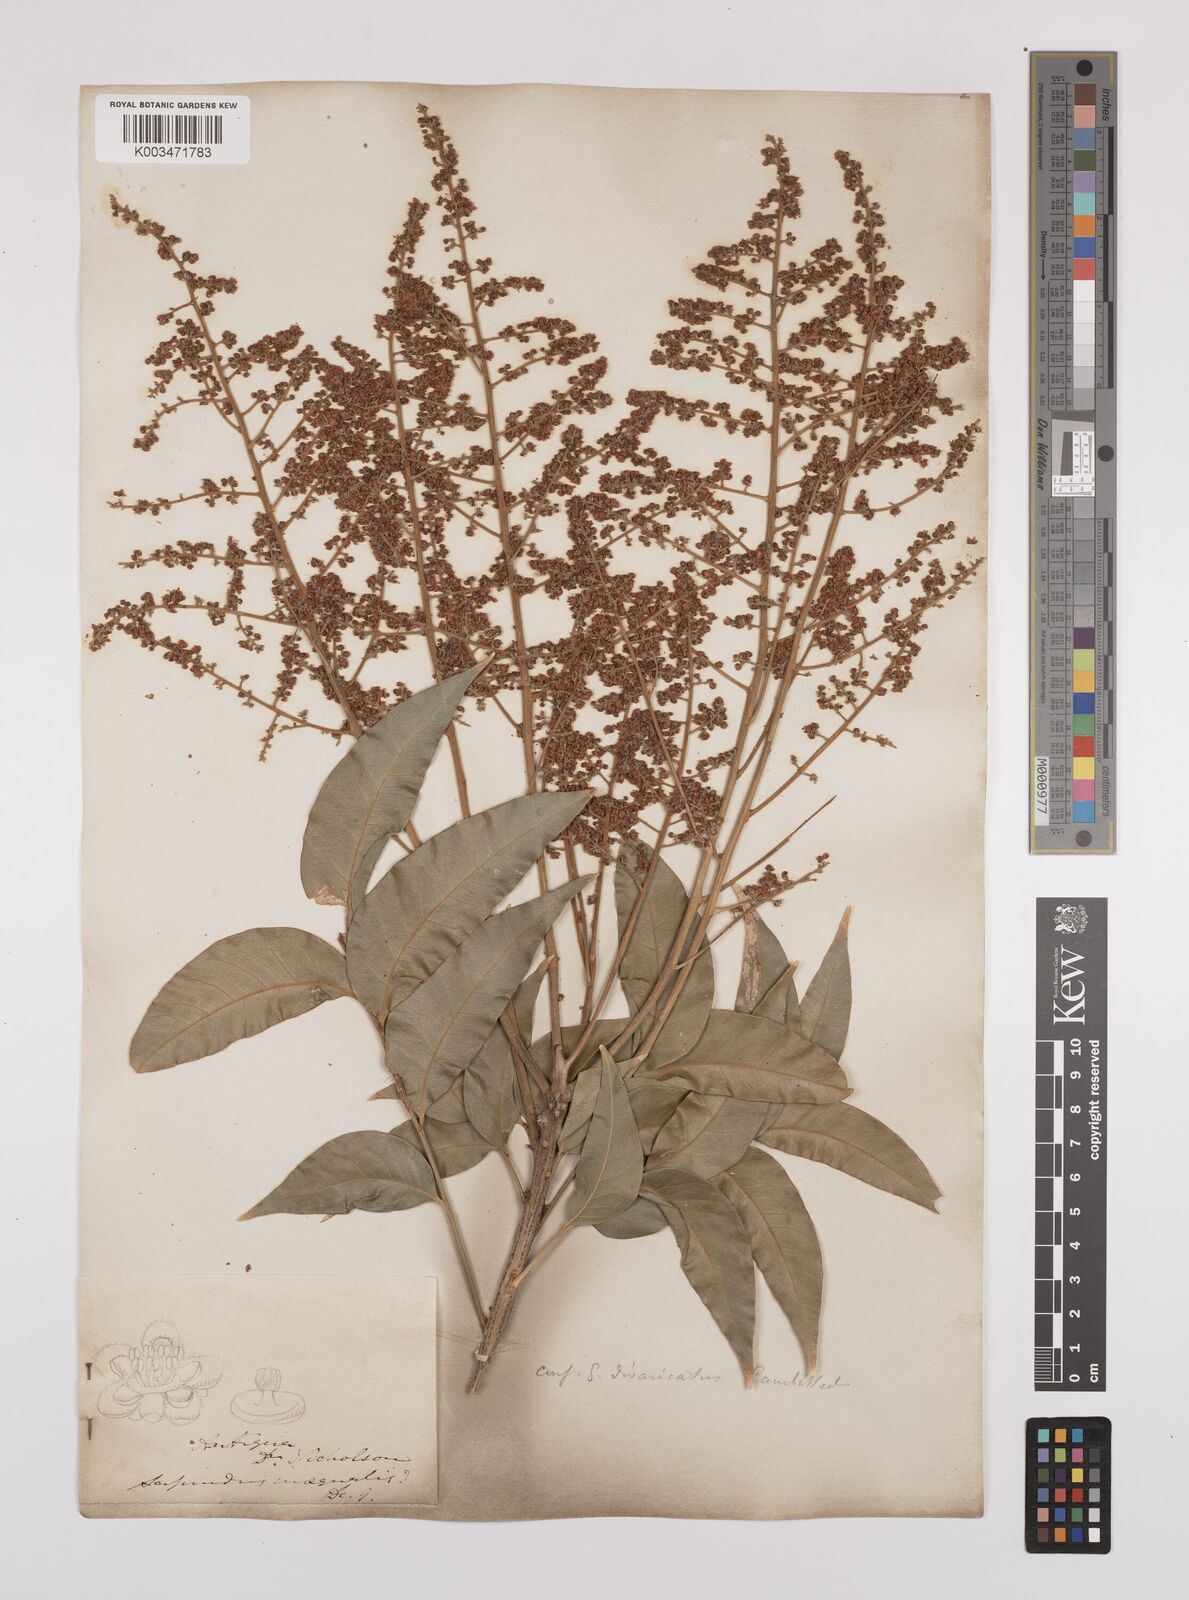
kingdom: Plantae
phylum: Tracheophyta
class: Magnoliopsida
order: Sapindales
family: Sapindaceae
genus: Sapindus
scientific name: Sapindus saponaria
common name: Wingleaf soapberry
